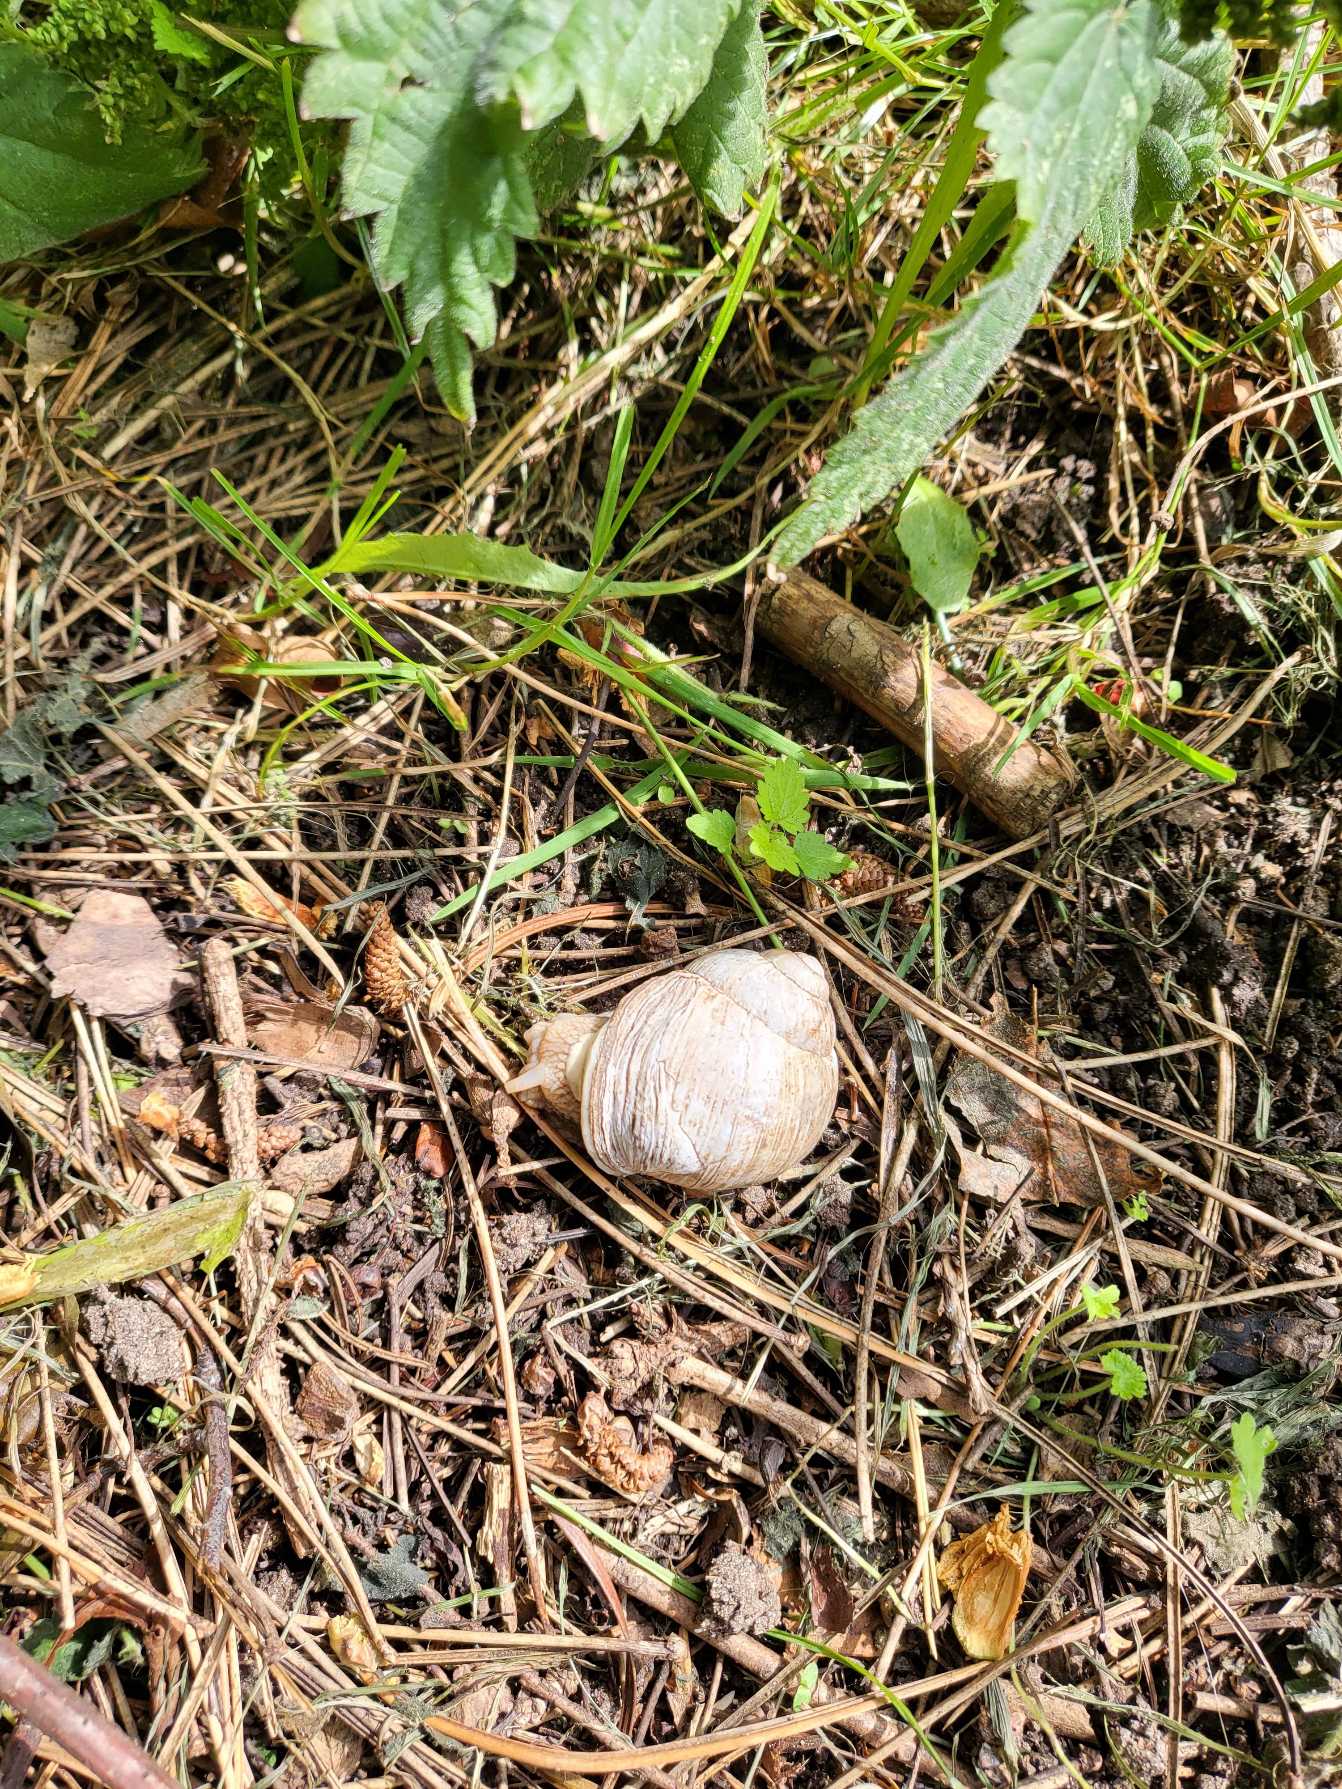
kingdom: Animalia
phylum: Mollusca
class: Gastropoda
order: Stylommatophora
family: Helicidae
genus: Helix
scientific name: Helix pomatia
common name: Vinbjergsnegl
